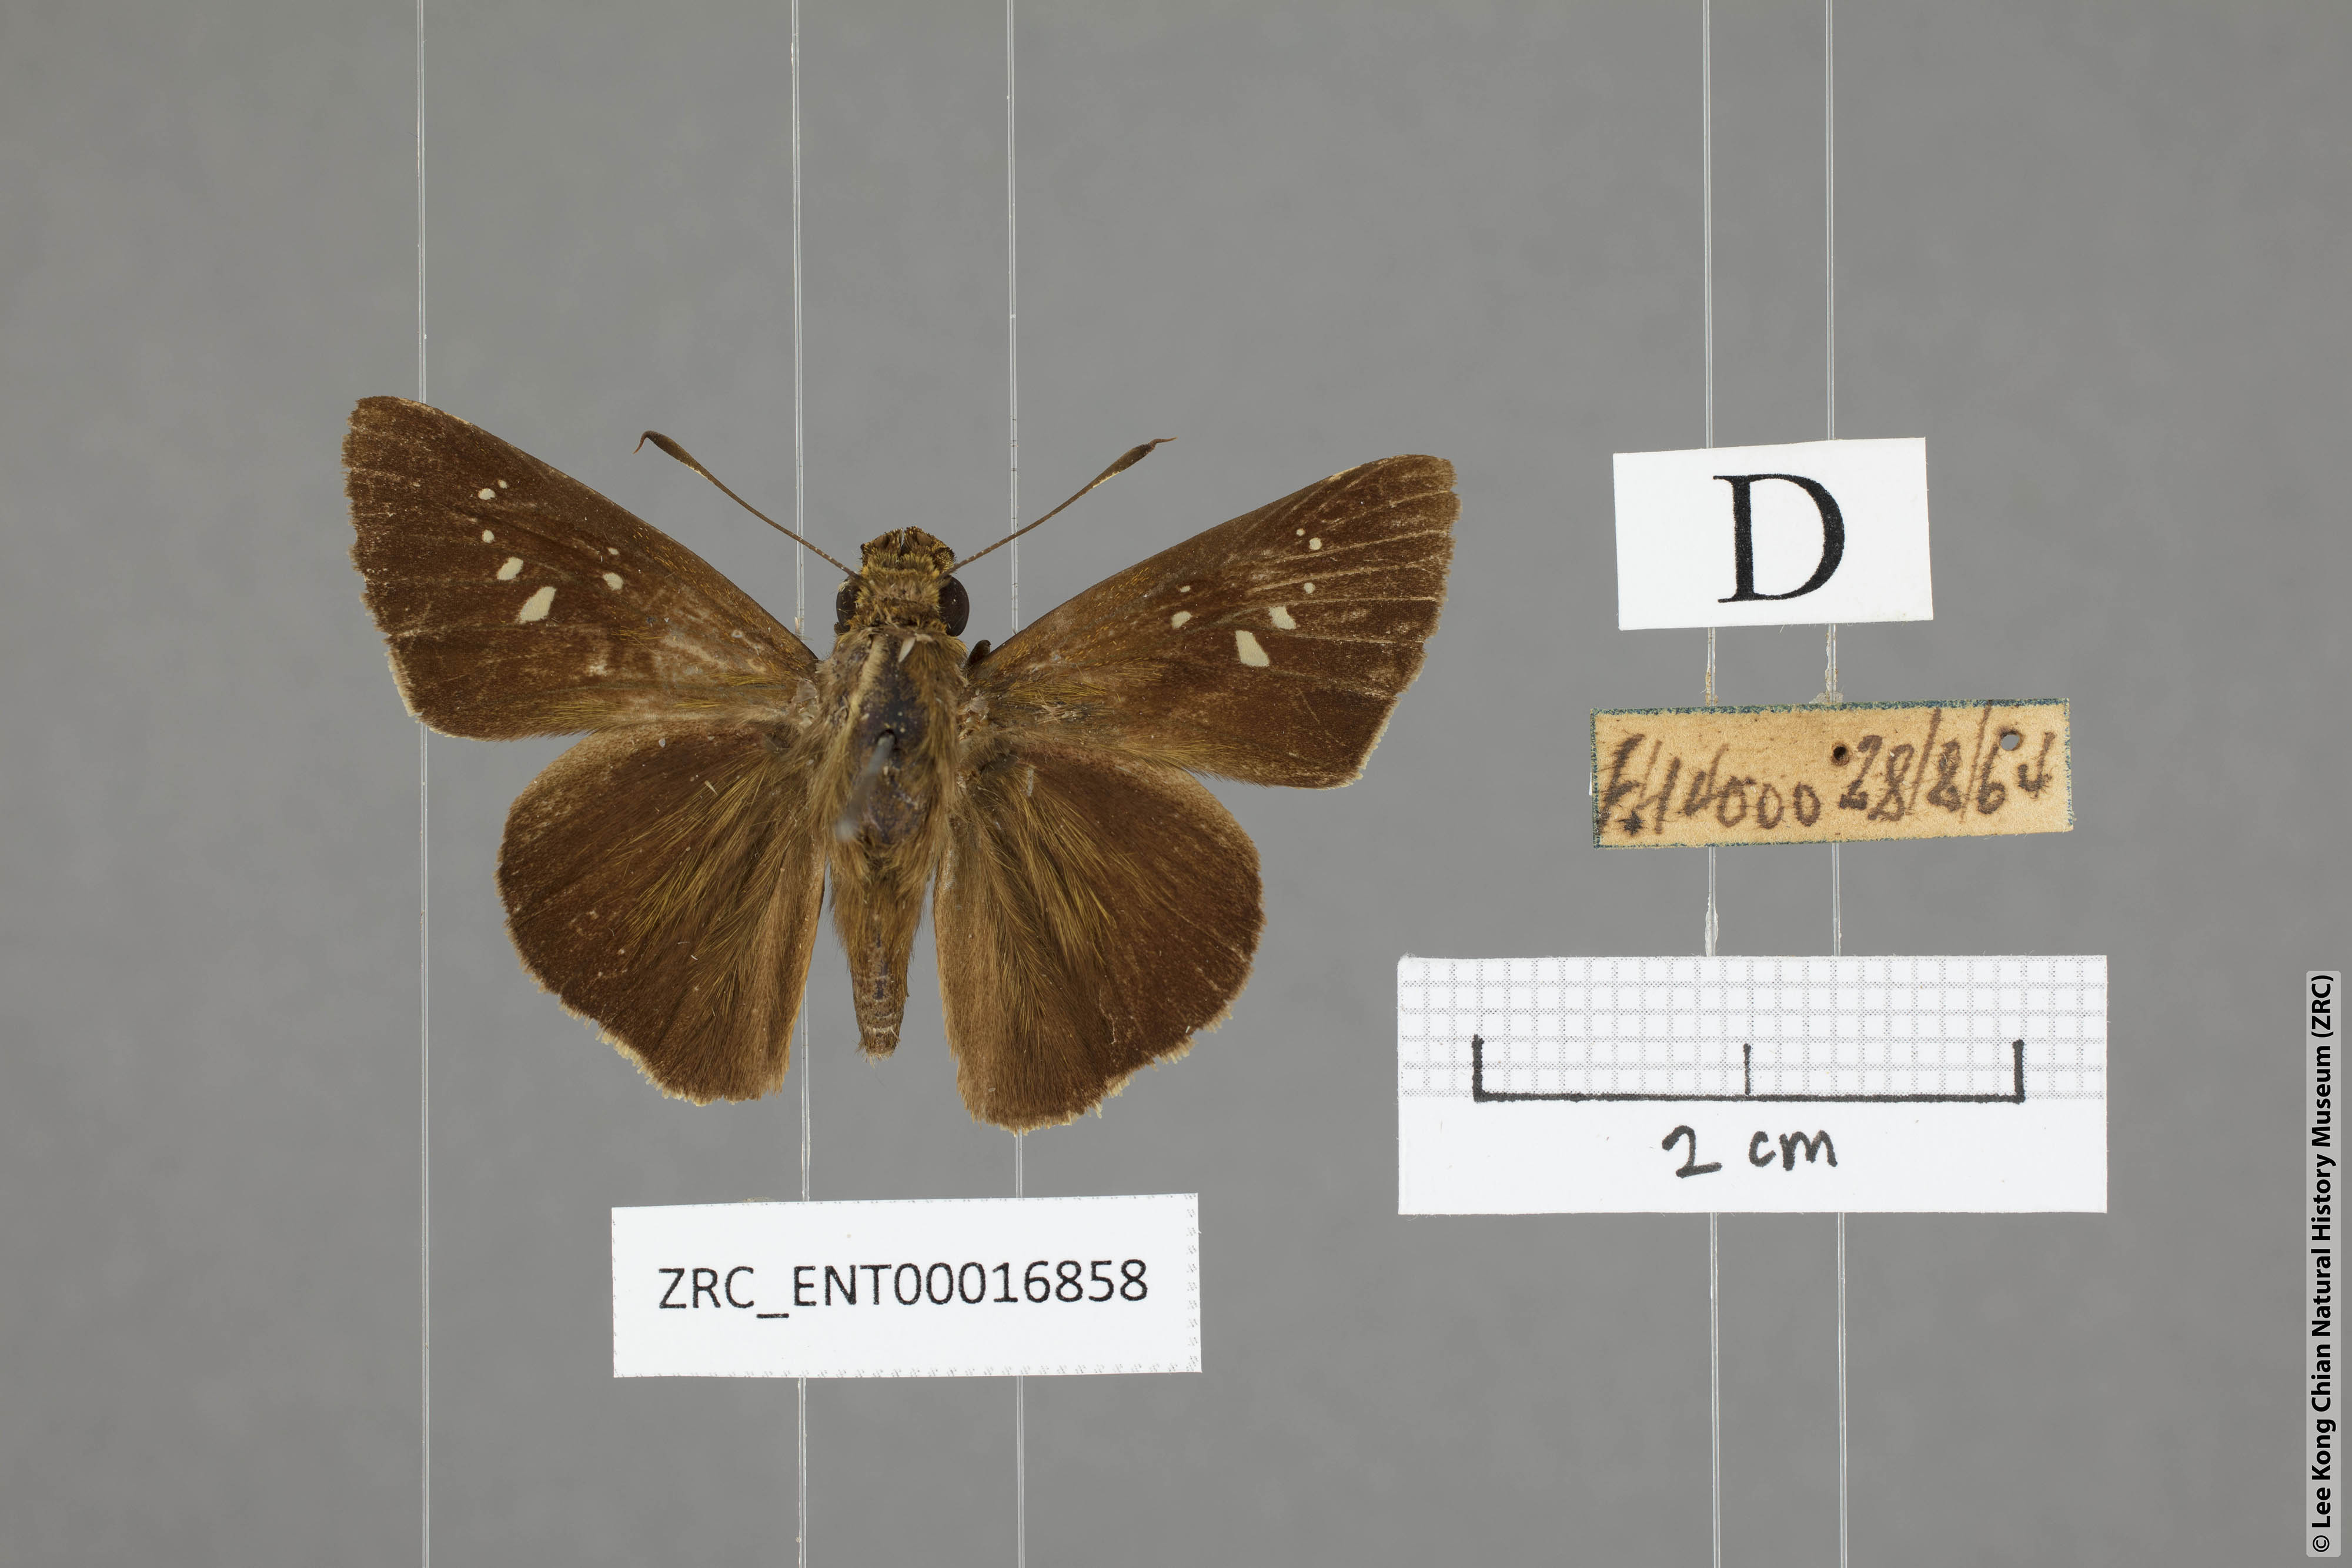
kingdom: Animalia
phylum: Arthropoda
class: Insecta
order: Lepidoptera
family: Hesperiidae
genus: Caltoris
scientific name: Caltoris sirius
